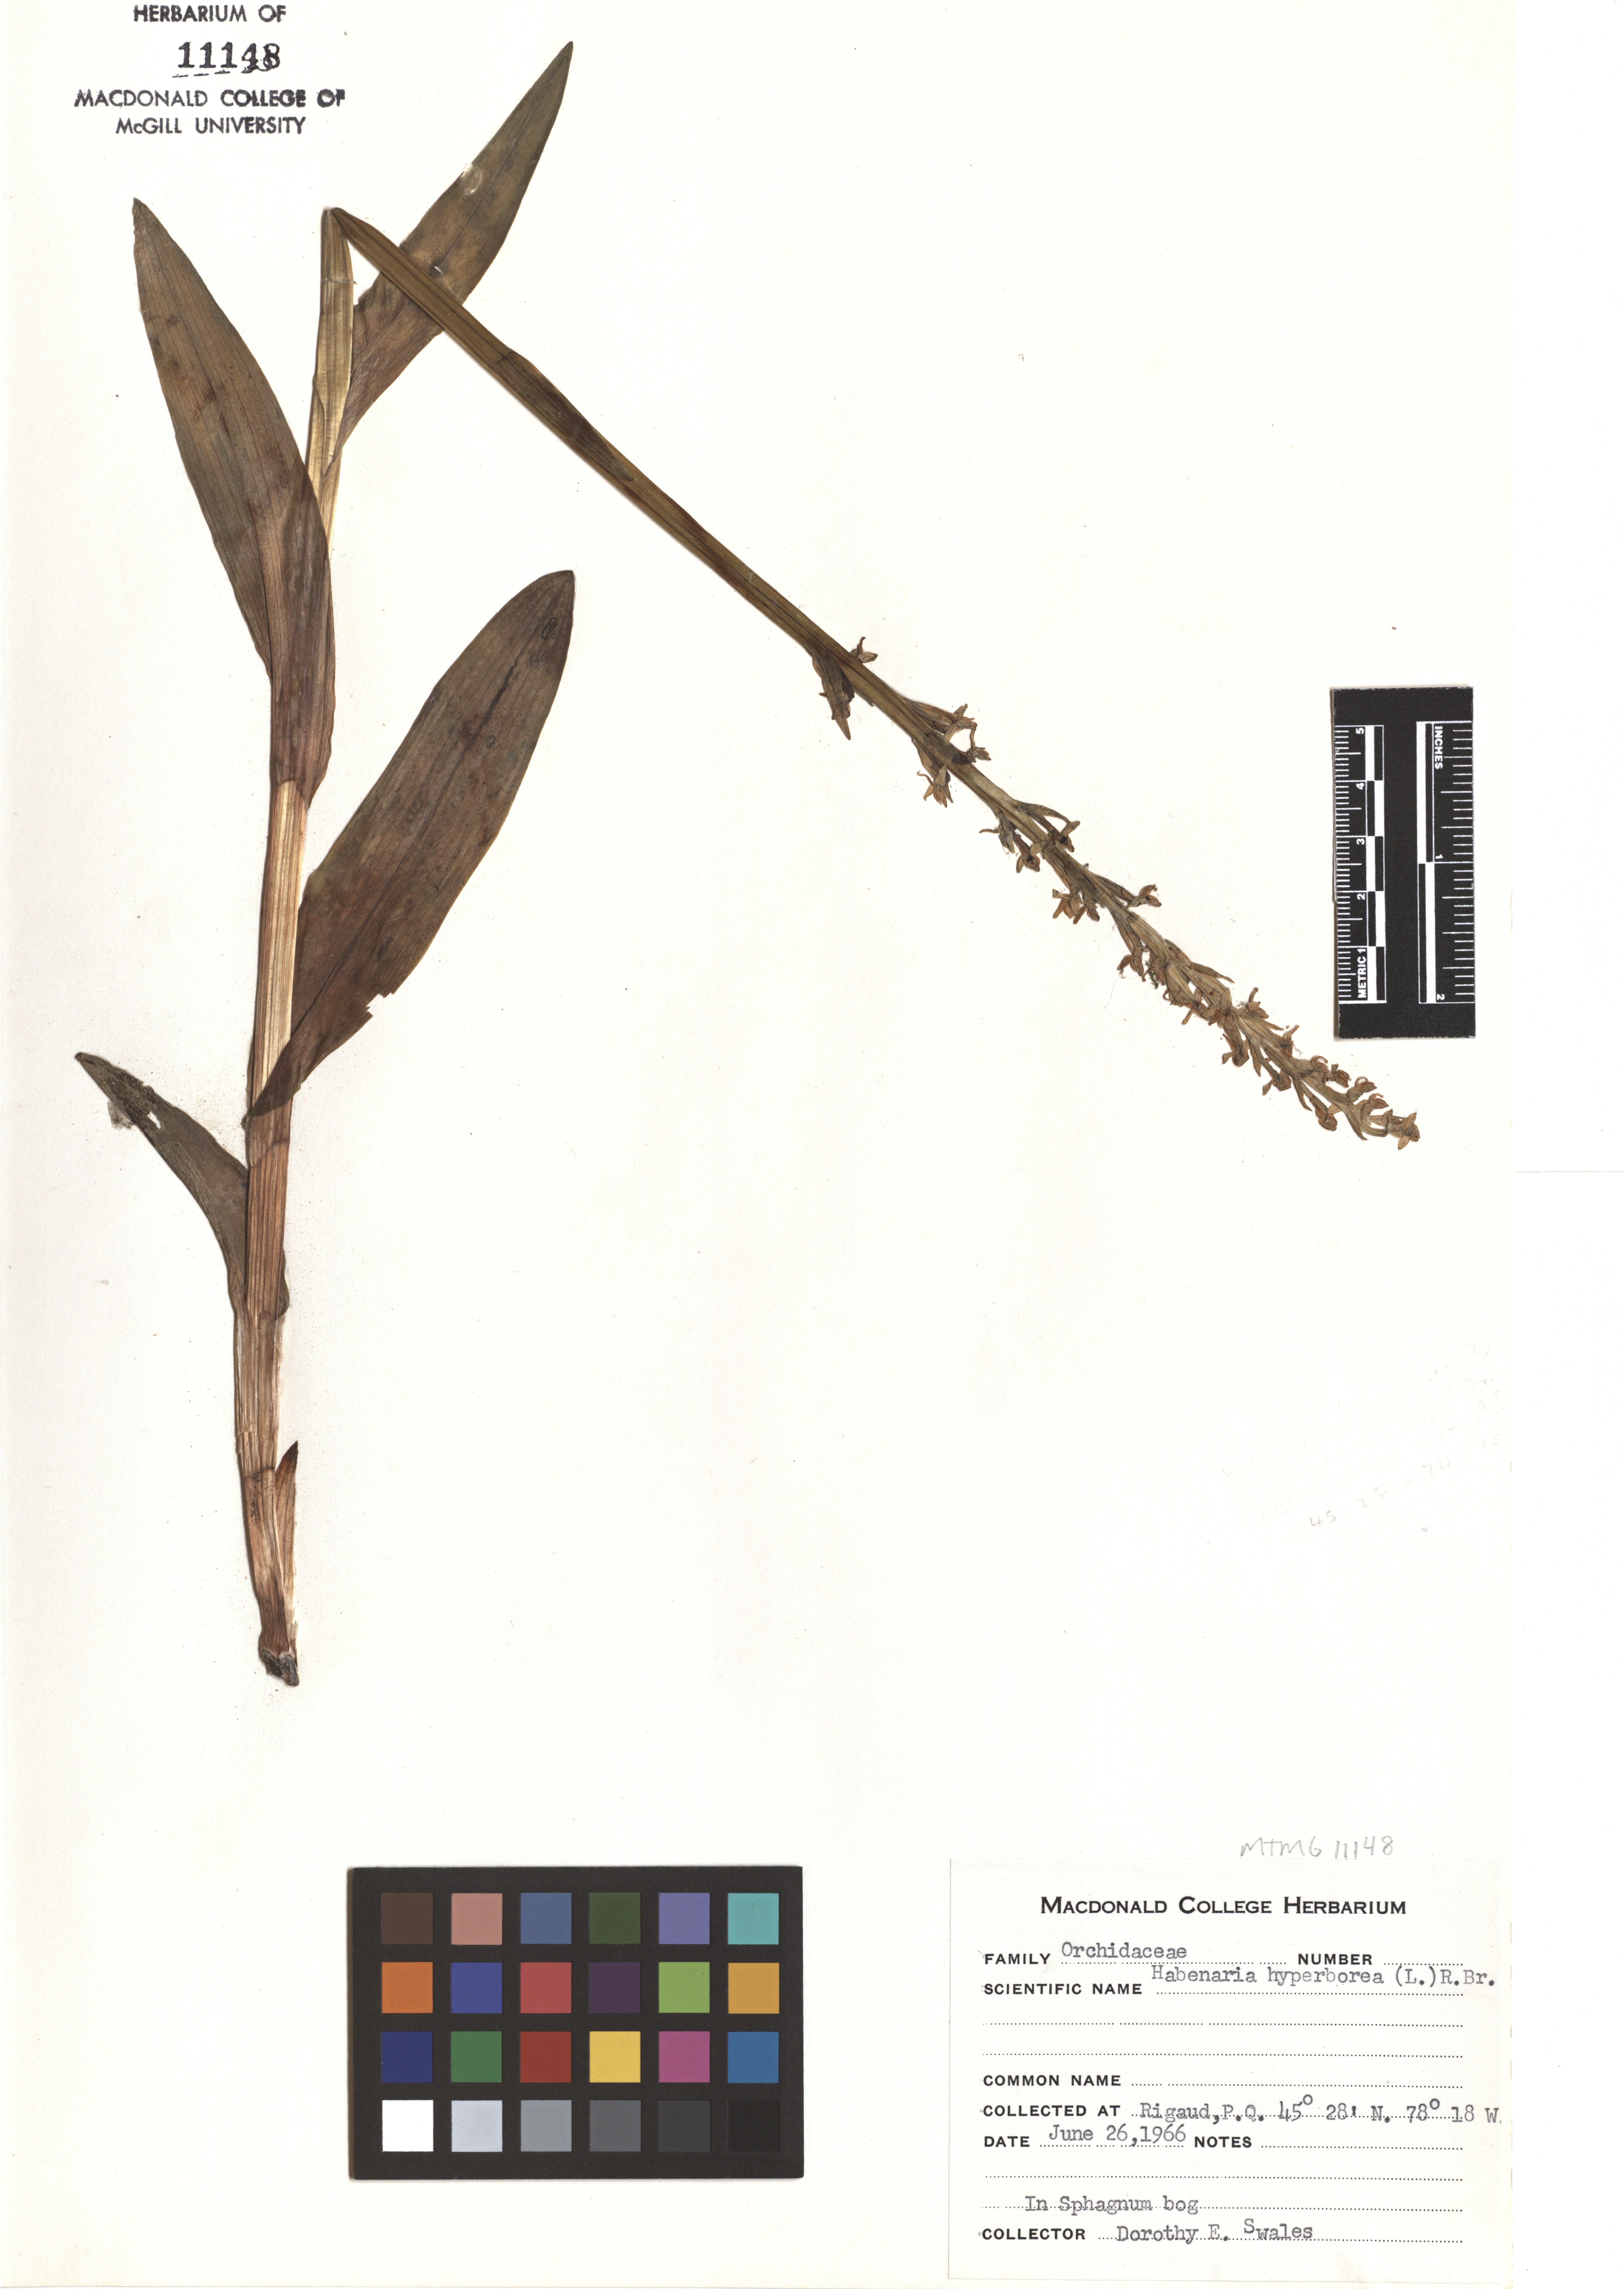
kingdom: Plantae
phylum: Tracheophyta
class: Liliopsida
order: Asparagales
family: Orchidaceae
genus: Platanthera
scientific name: Platanthera hyperborea
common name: Northern green orchid
